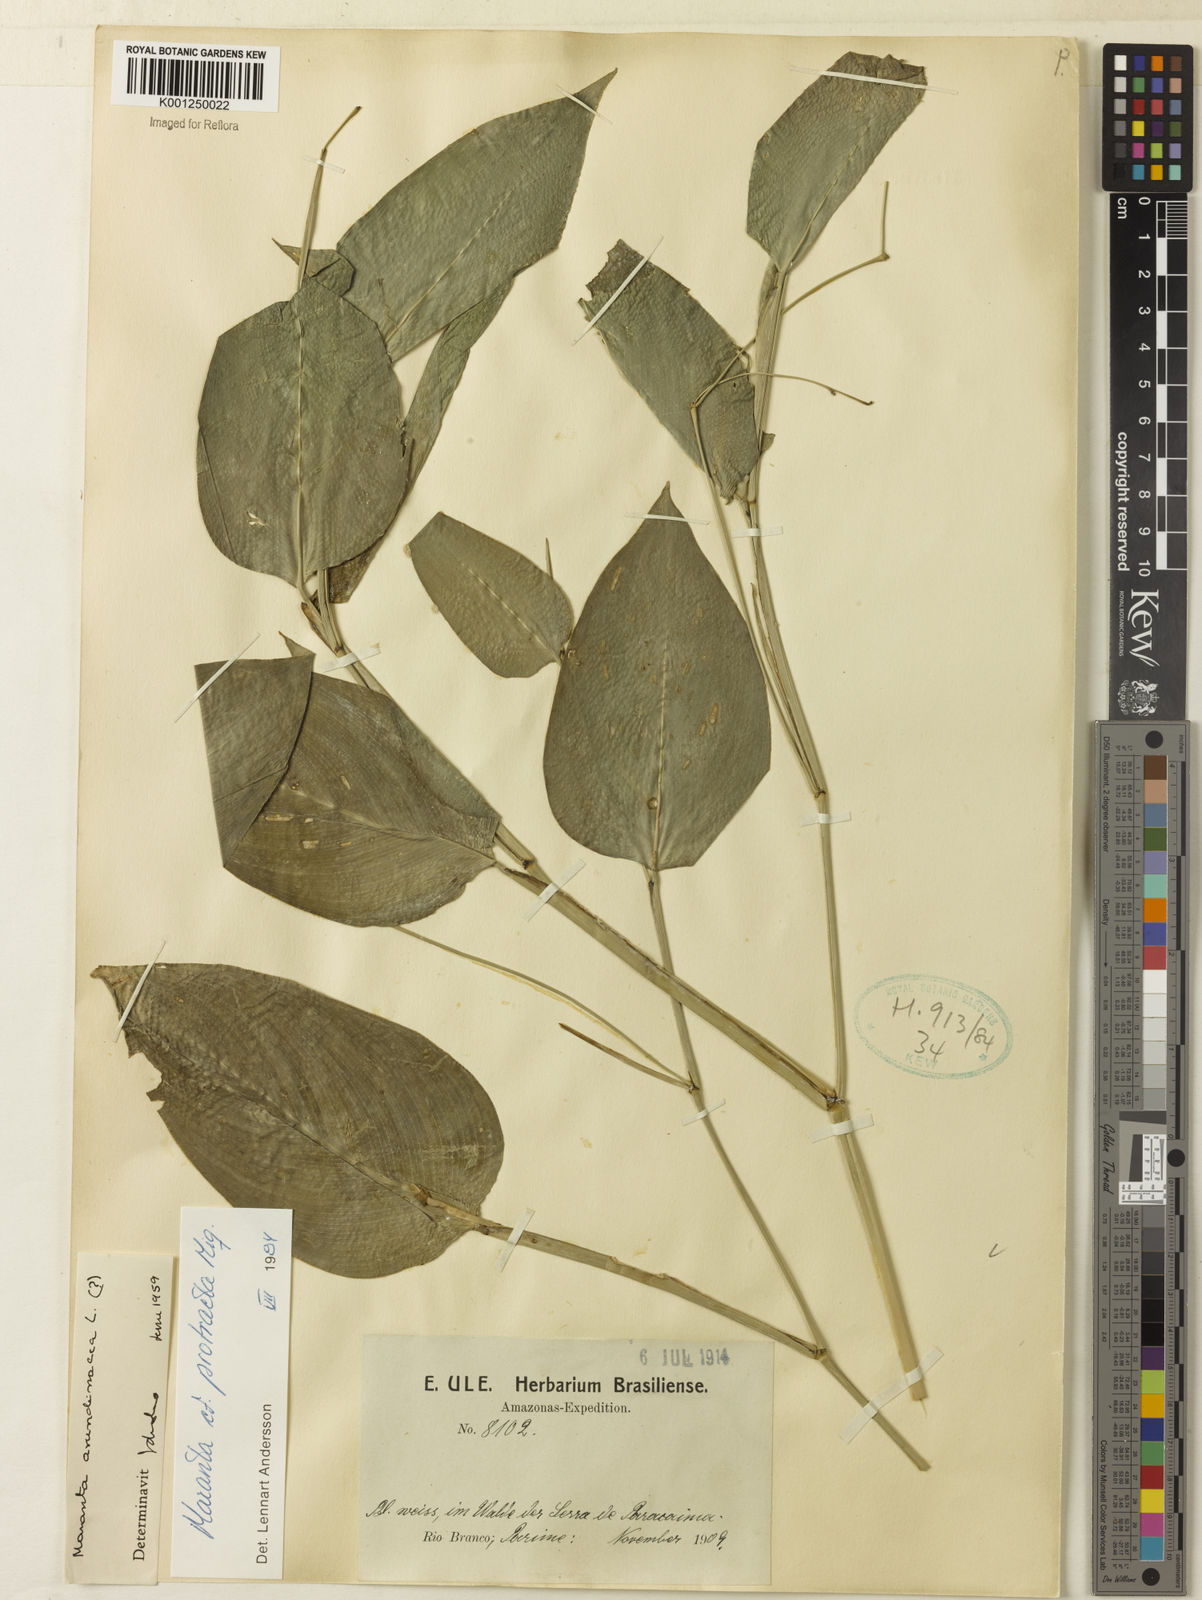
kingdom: Plantae
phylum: Tracheophyta
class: Liliopsida
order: Zingiberales
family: Marantaceae
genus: Maranta
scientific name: Maranta protracta
